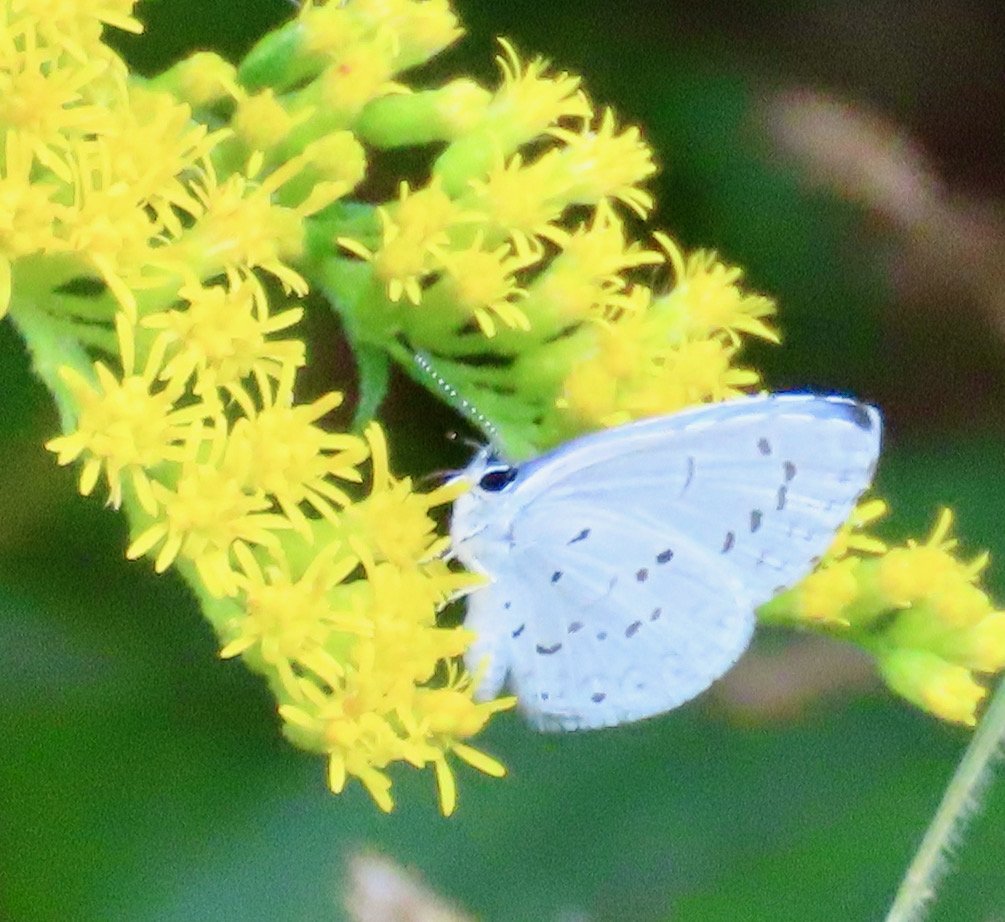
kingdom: Animalia
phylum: Arthropoda
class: Insecta
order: Lepidoptera
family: Lycaenidae
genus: Cyaniris
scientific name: Cyaniris neglecta
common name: Summer Azure
